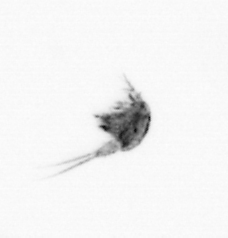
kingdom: Animalia
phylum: Arthropoda
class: Copepoda
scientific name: Copepoda
